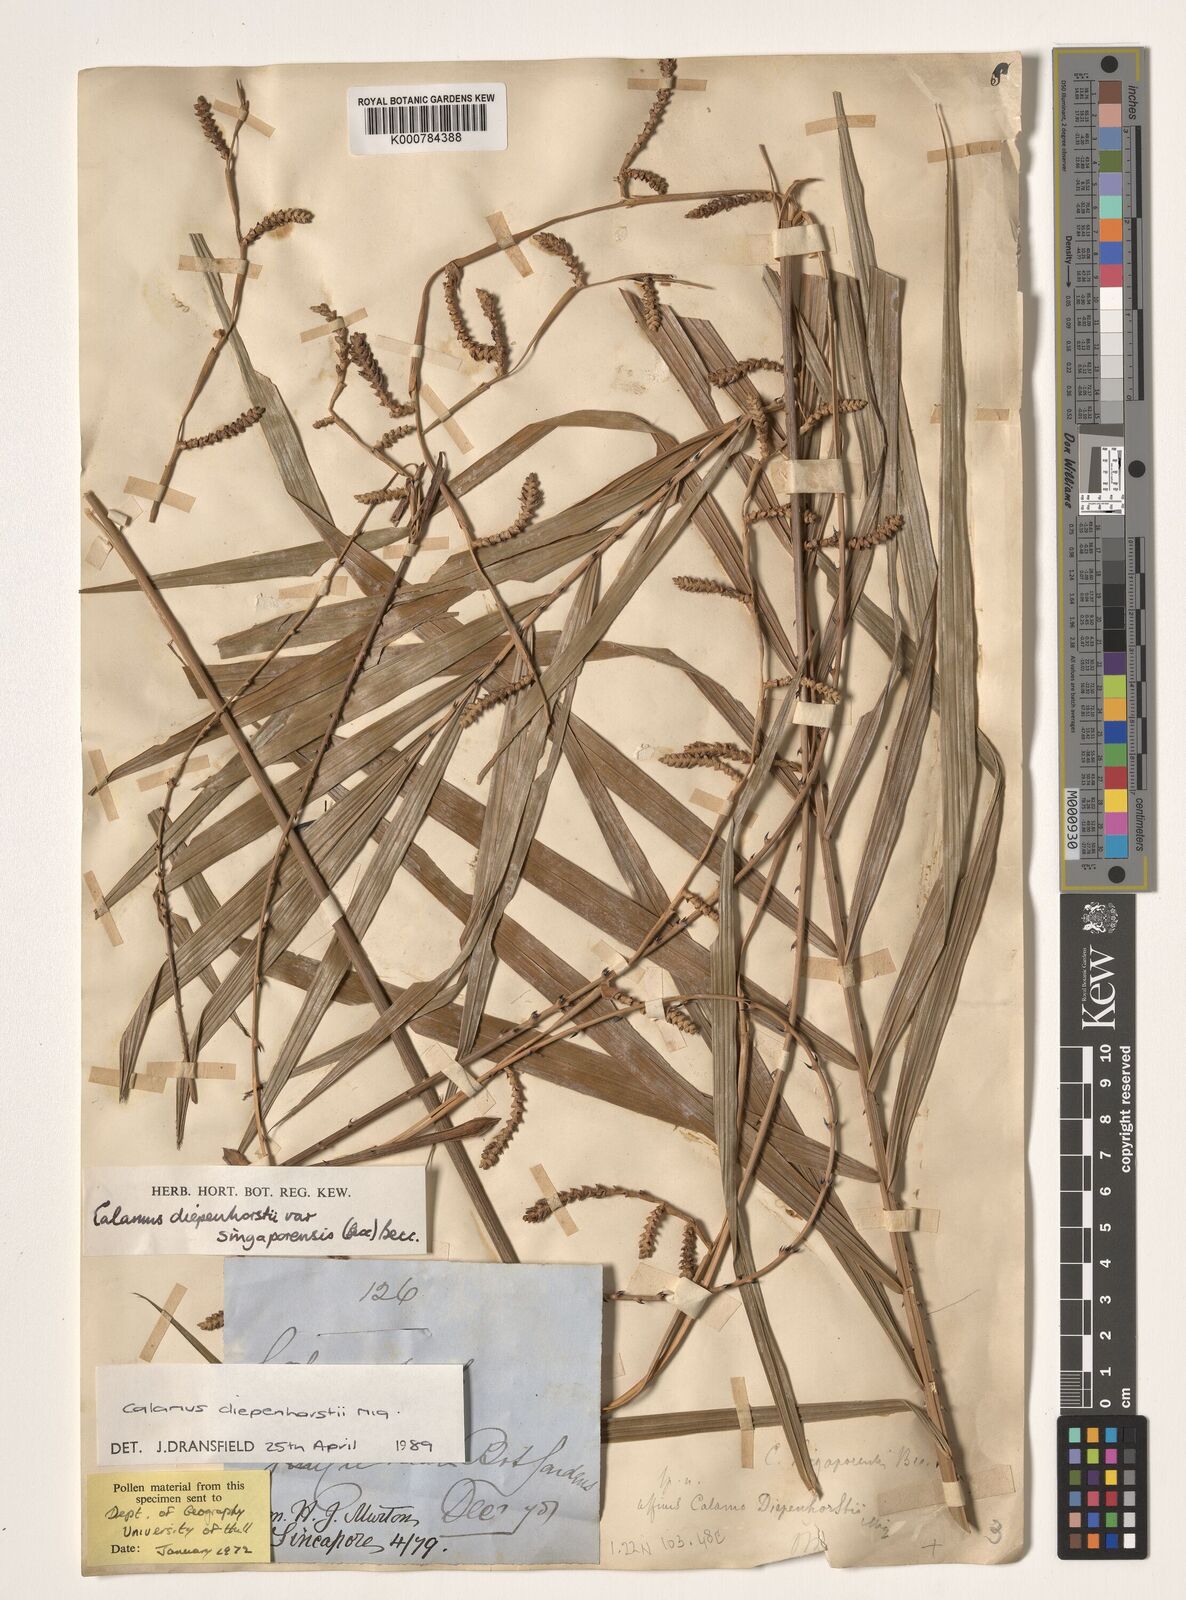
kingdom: Plantae
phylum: Tracheophyta
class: Liliopsida
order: Arecales
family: Arecaceae
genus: Calamus
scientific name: Calamus diepenhorstii
